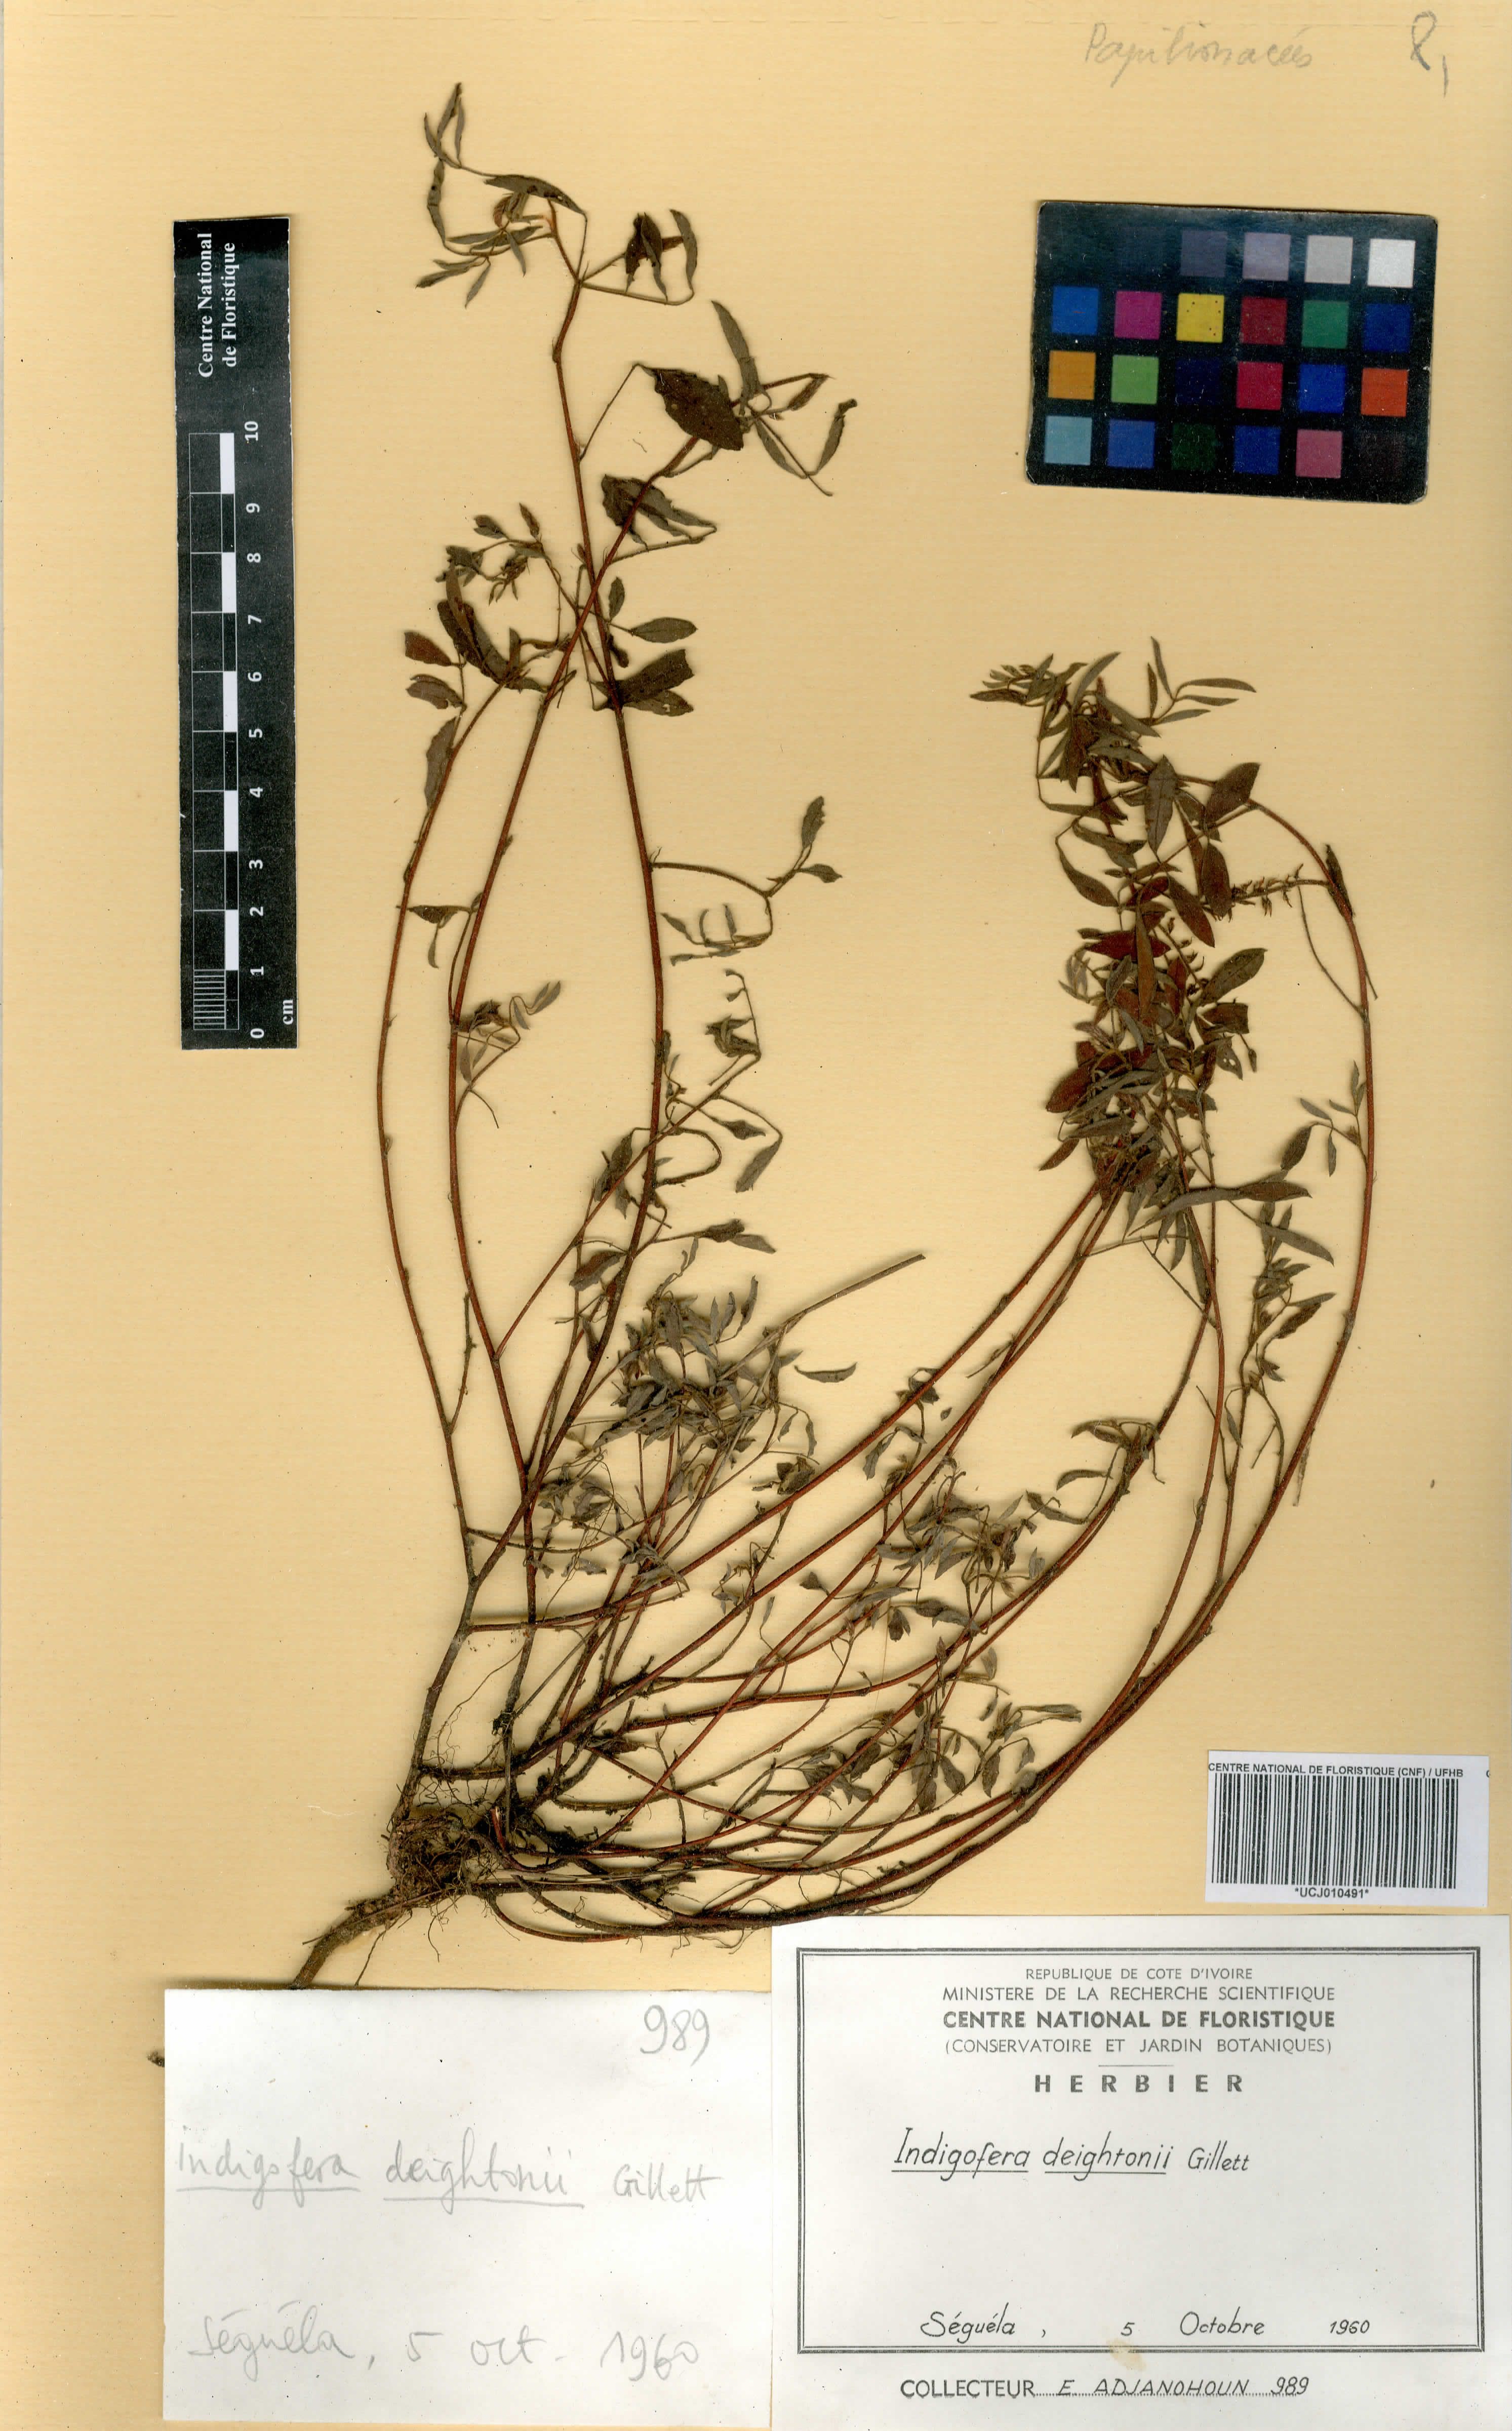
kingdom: Plantae
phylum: Tracheophyta
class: Magnoliopsida
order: Fabales
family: Fabaceae
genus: Indigofera
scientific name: Indigofera deightonii
